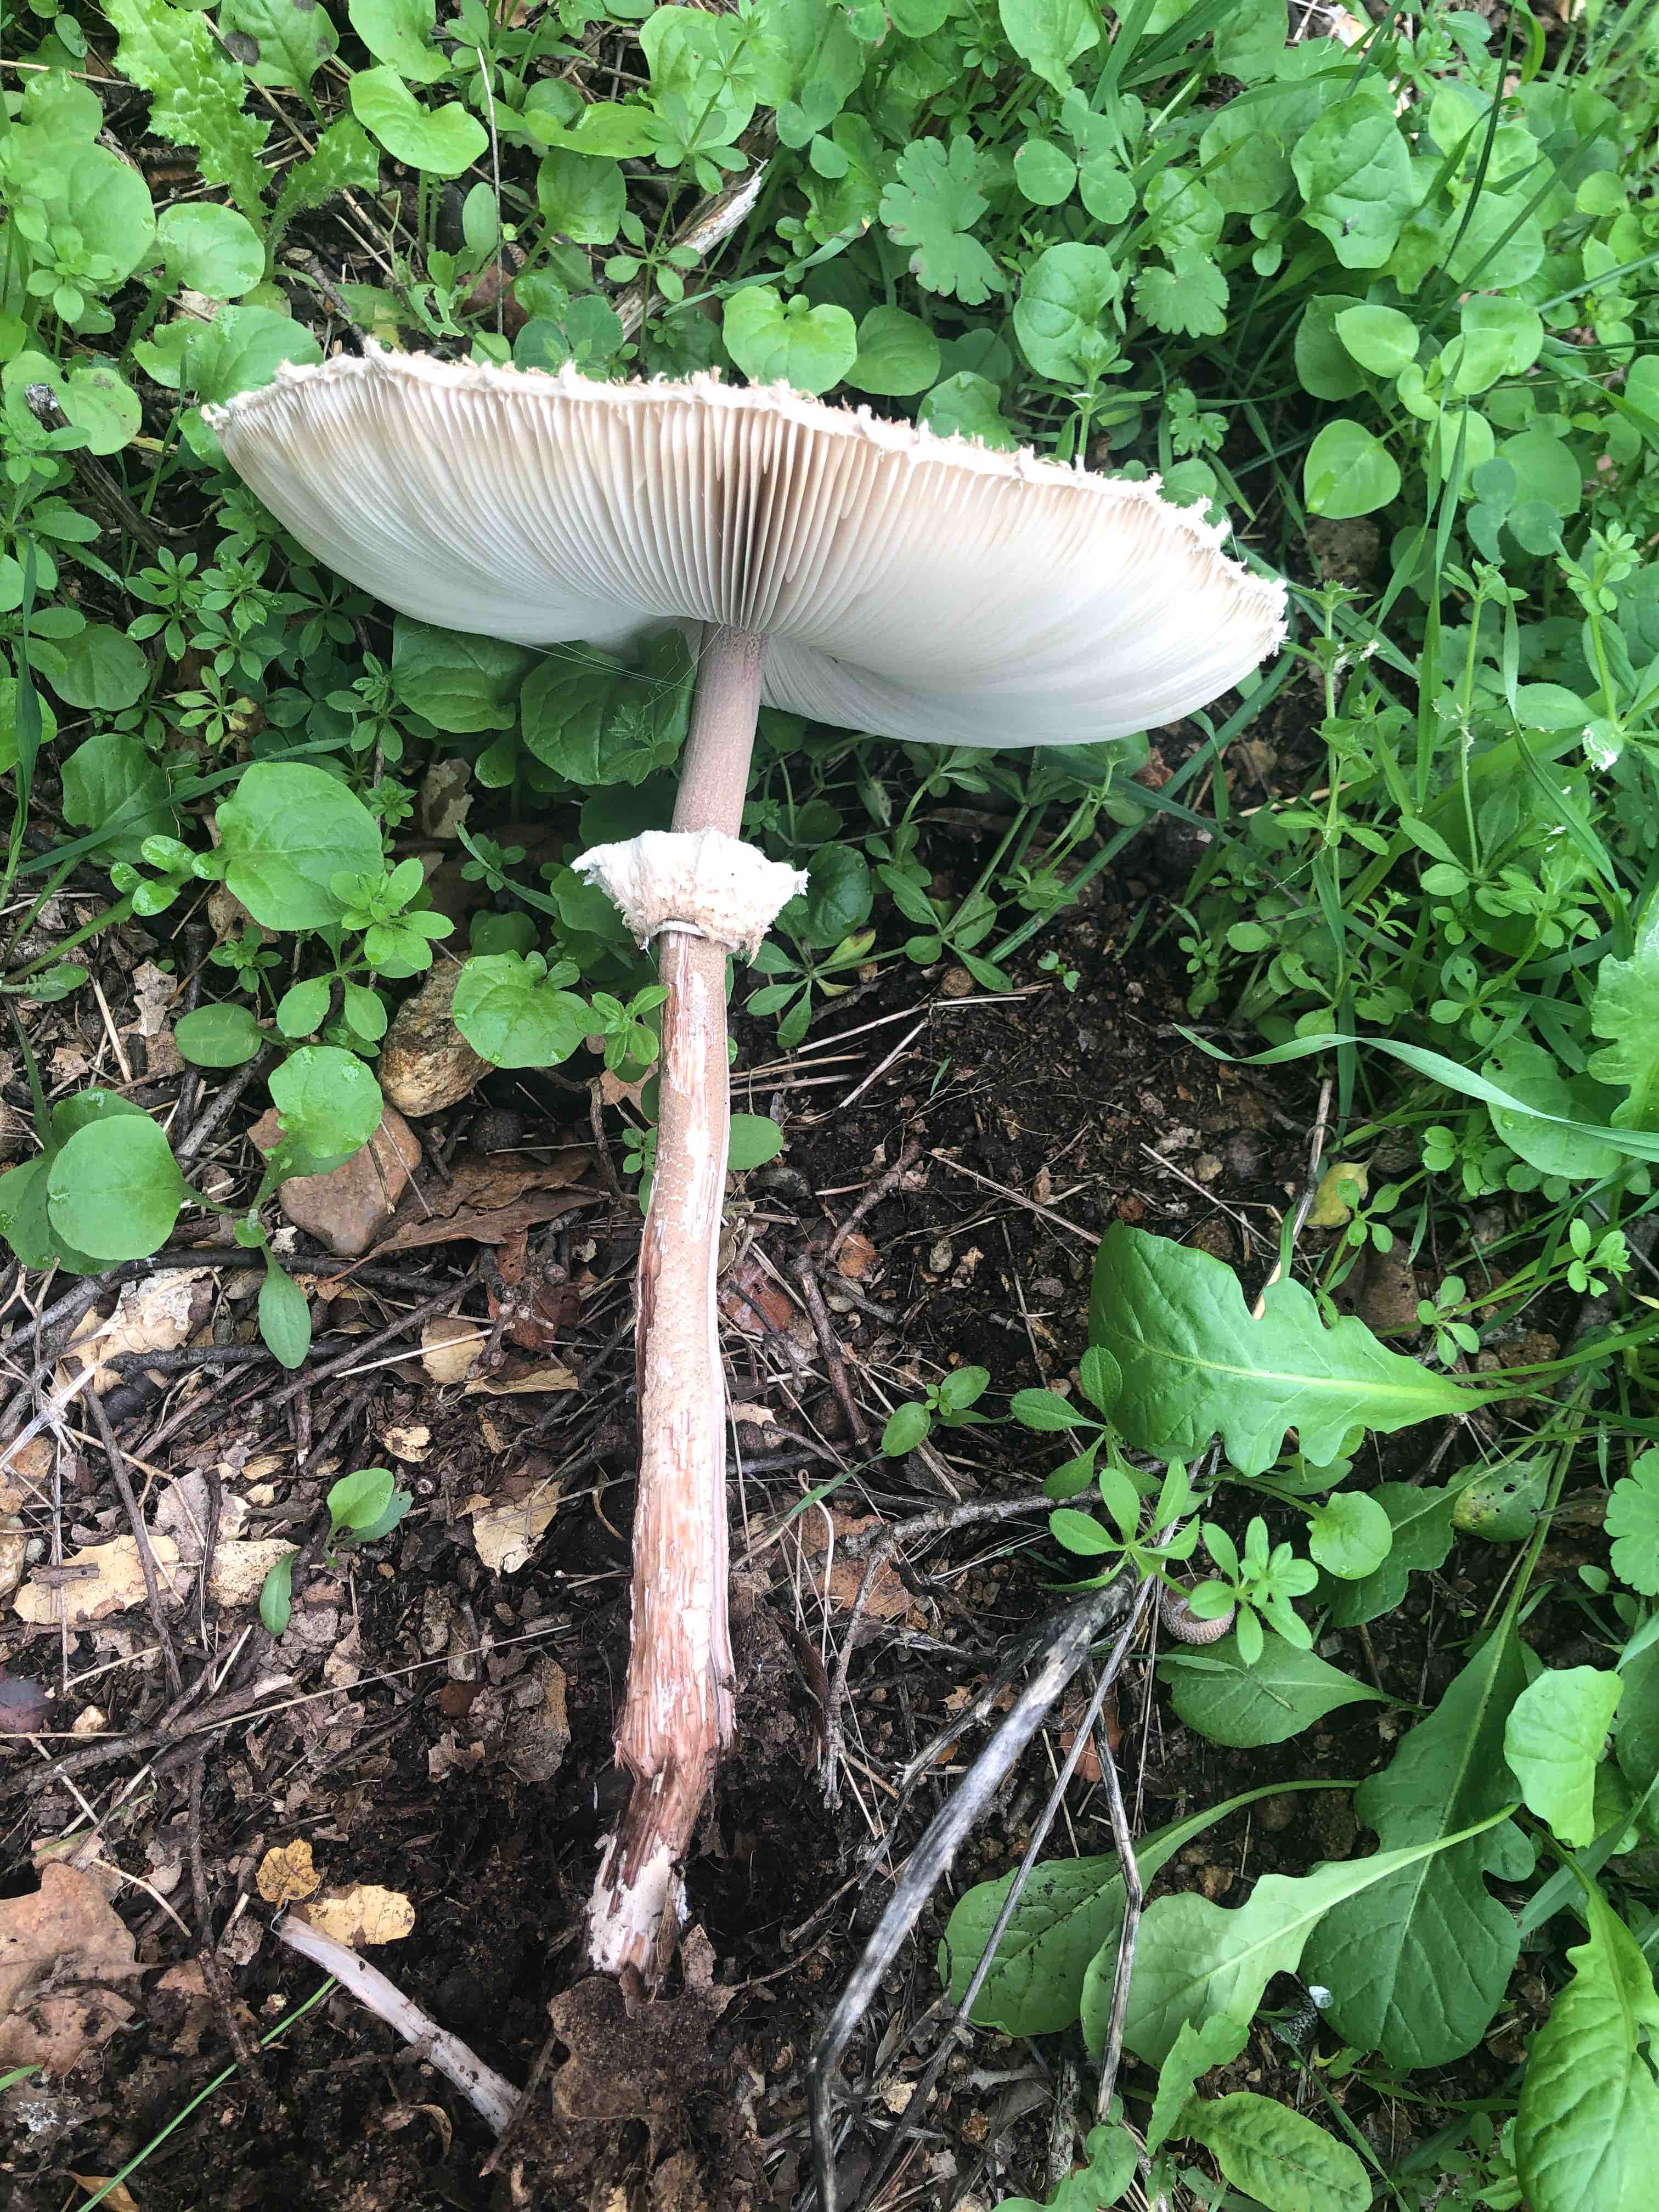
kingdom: Fungi
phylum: Basidiomycota
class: Agaricomycetes
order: Agaricales
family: Agaricaceae
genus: Macrolepiota
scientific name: Macrolepiota mastoidea
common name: puklet kæmpeparasolhat
